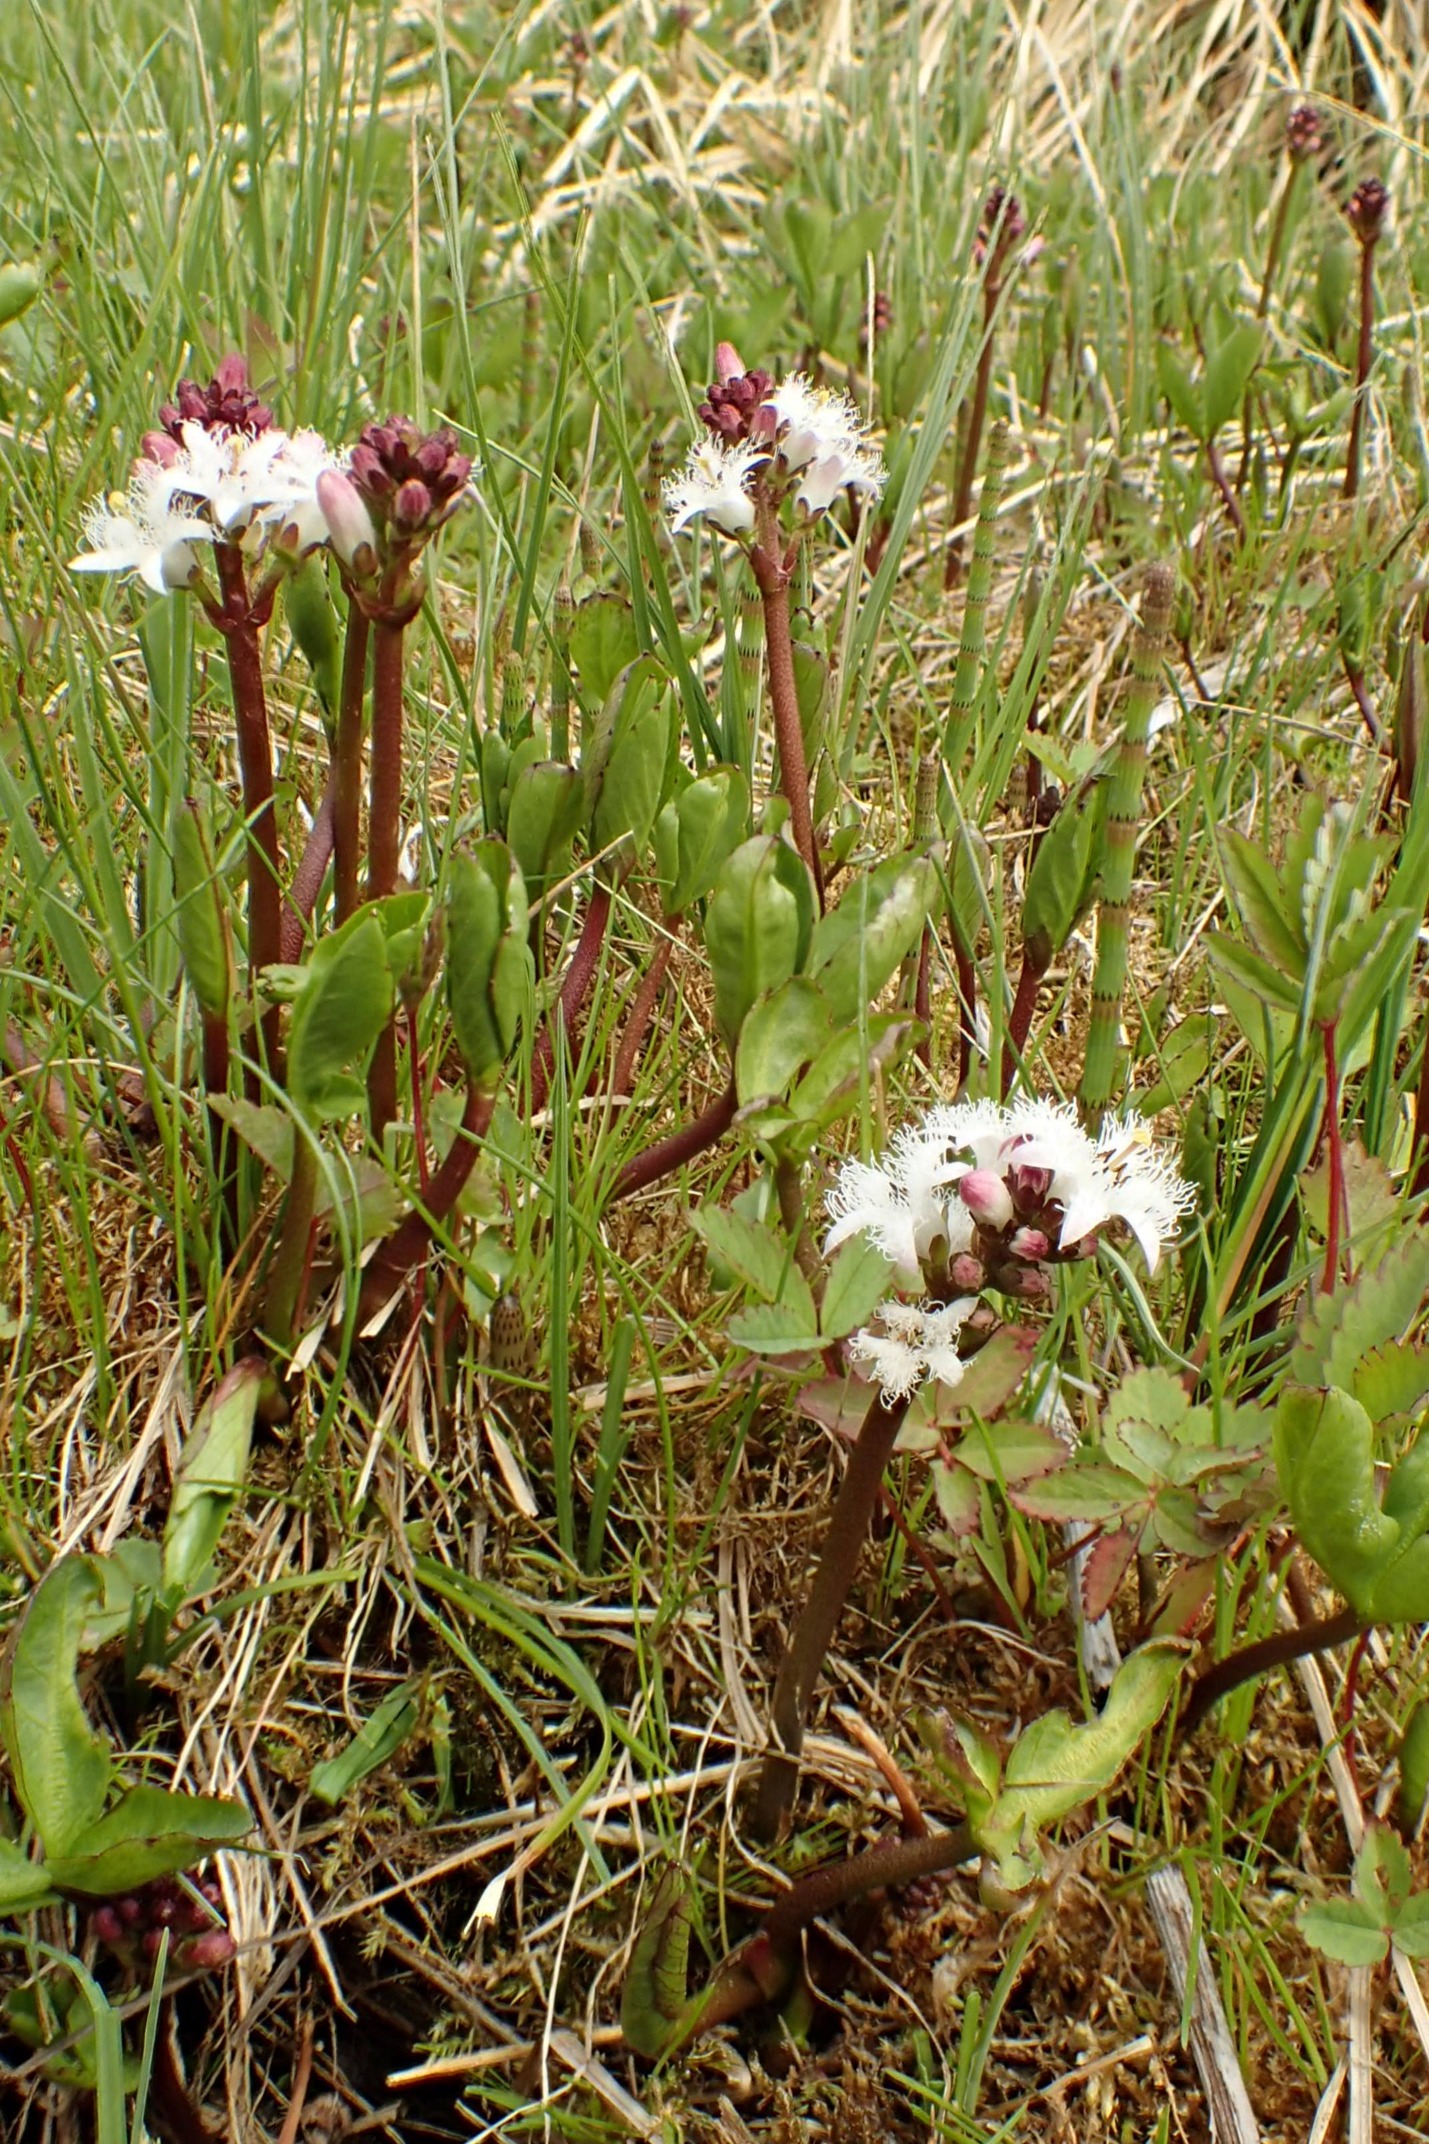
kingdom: Plantae
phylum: Tracheophyta
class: Magnoliopsida
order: Asterales
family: Menyanthaceae
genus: Menyanthes
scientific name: Menyanthes trifoliata
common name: Bukkeblad
